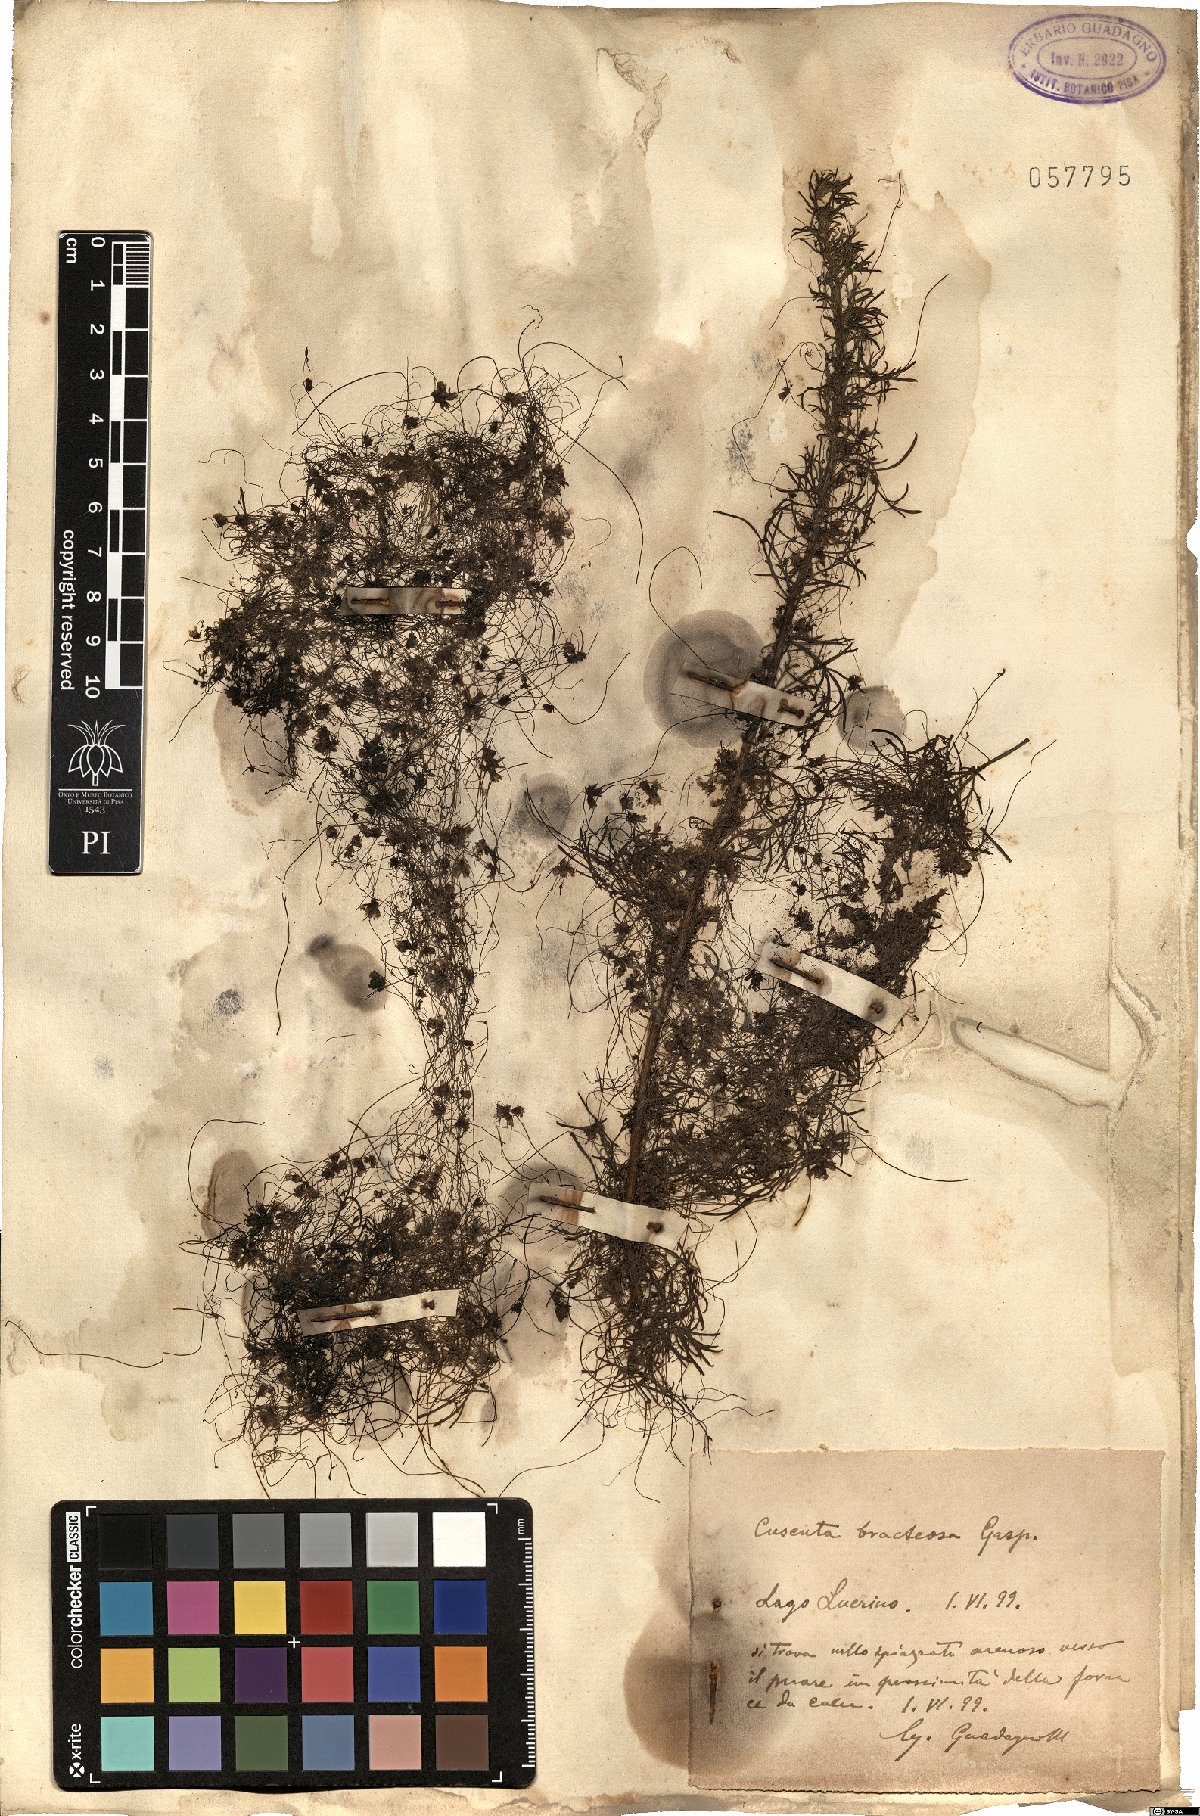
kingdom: Plantae
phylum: Tracheophyta
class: Magnoliopsida
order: Solanales
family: Convolvulaceae
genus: Cuscuta
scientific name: Cuscuta planiflora
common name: Small-seed alfalfa dodder
